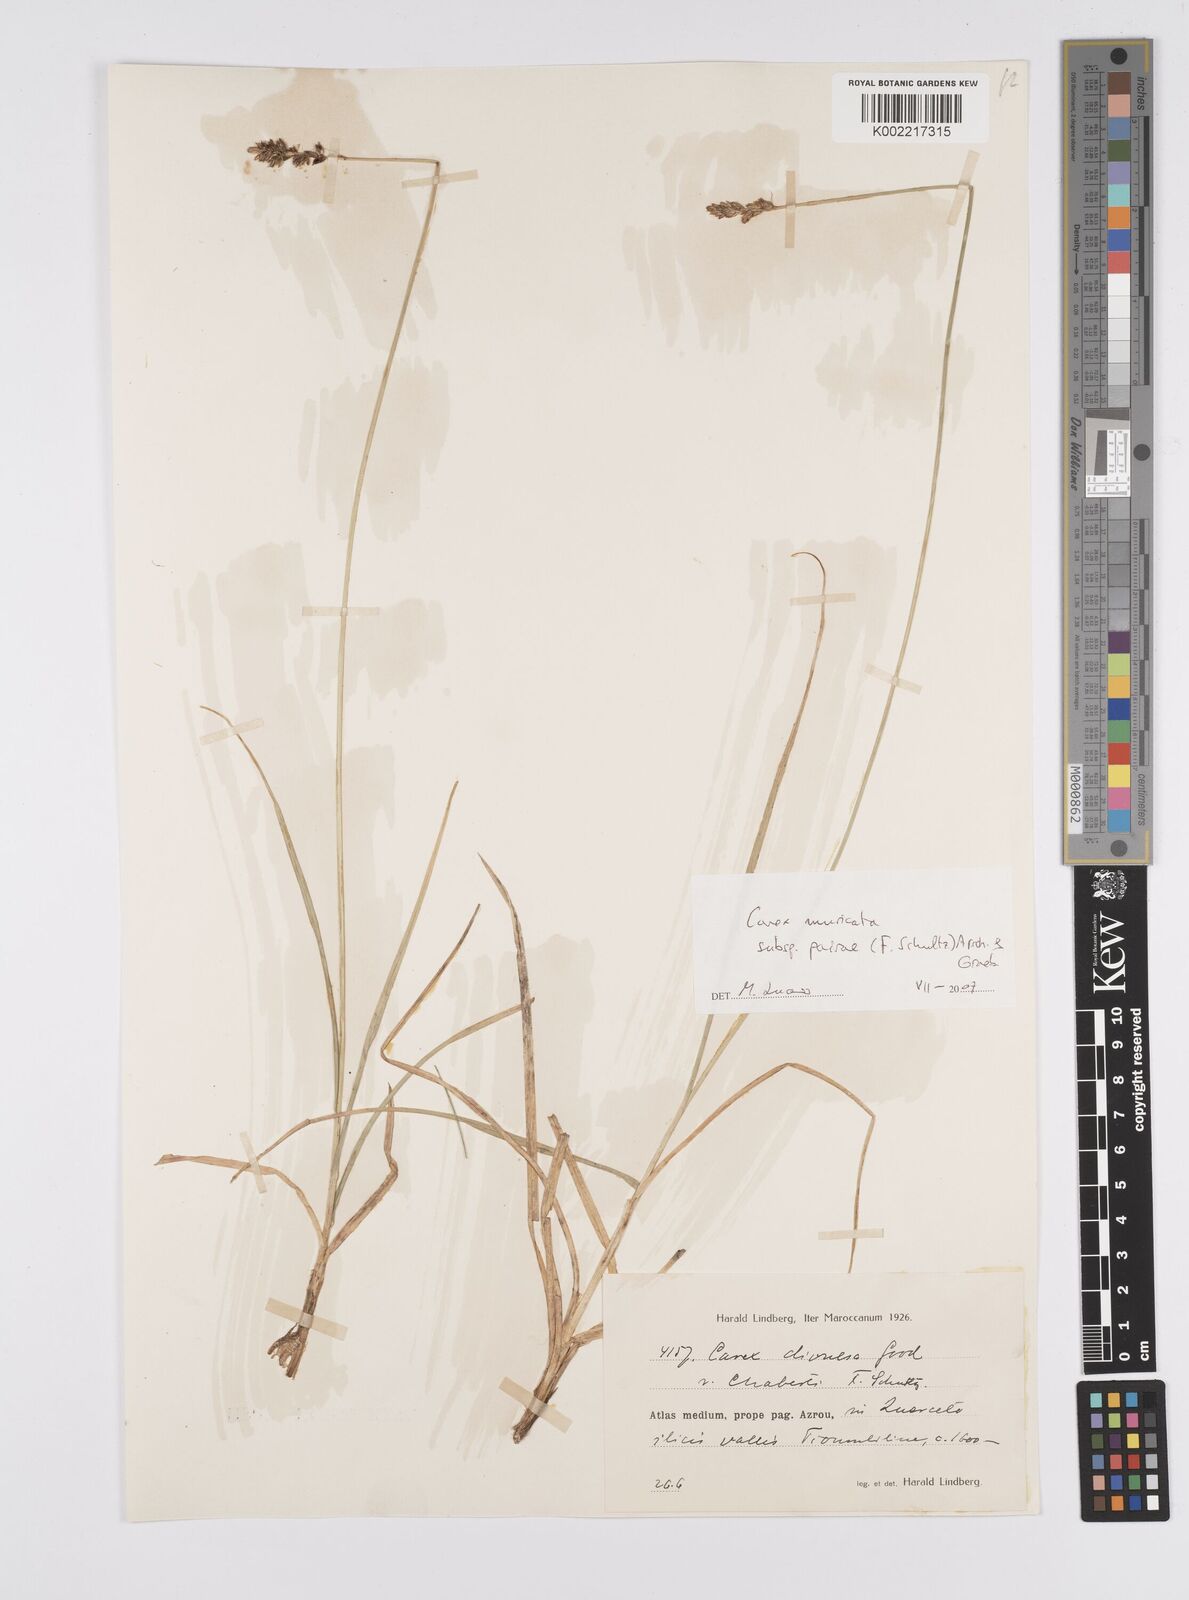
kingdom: Plantae
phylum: Tracheophyta
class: Liliopsida
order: Poales
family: Cyperaceae
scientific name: Cyperaceae
